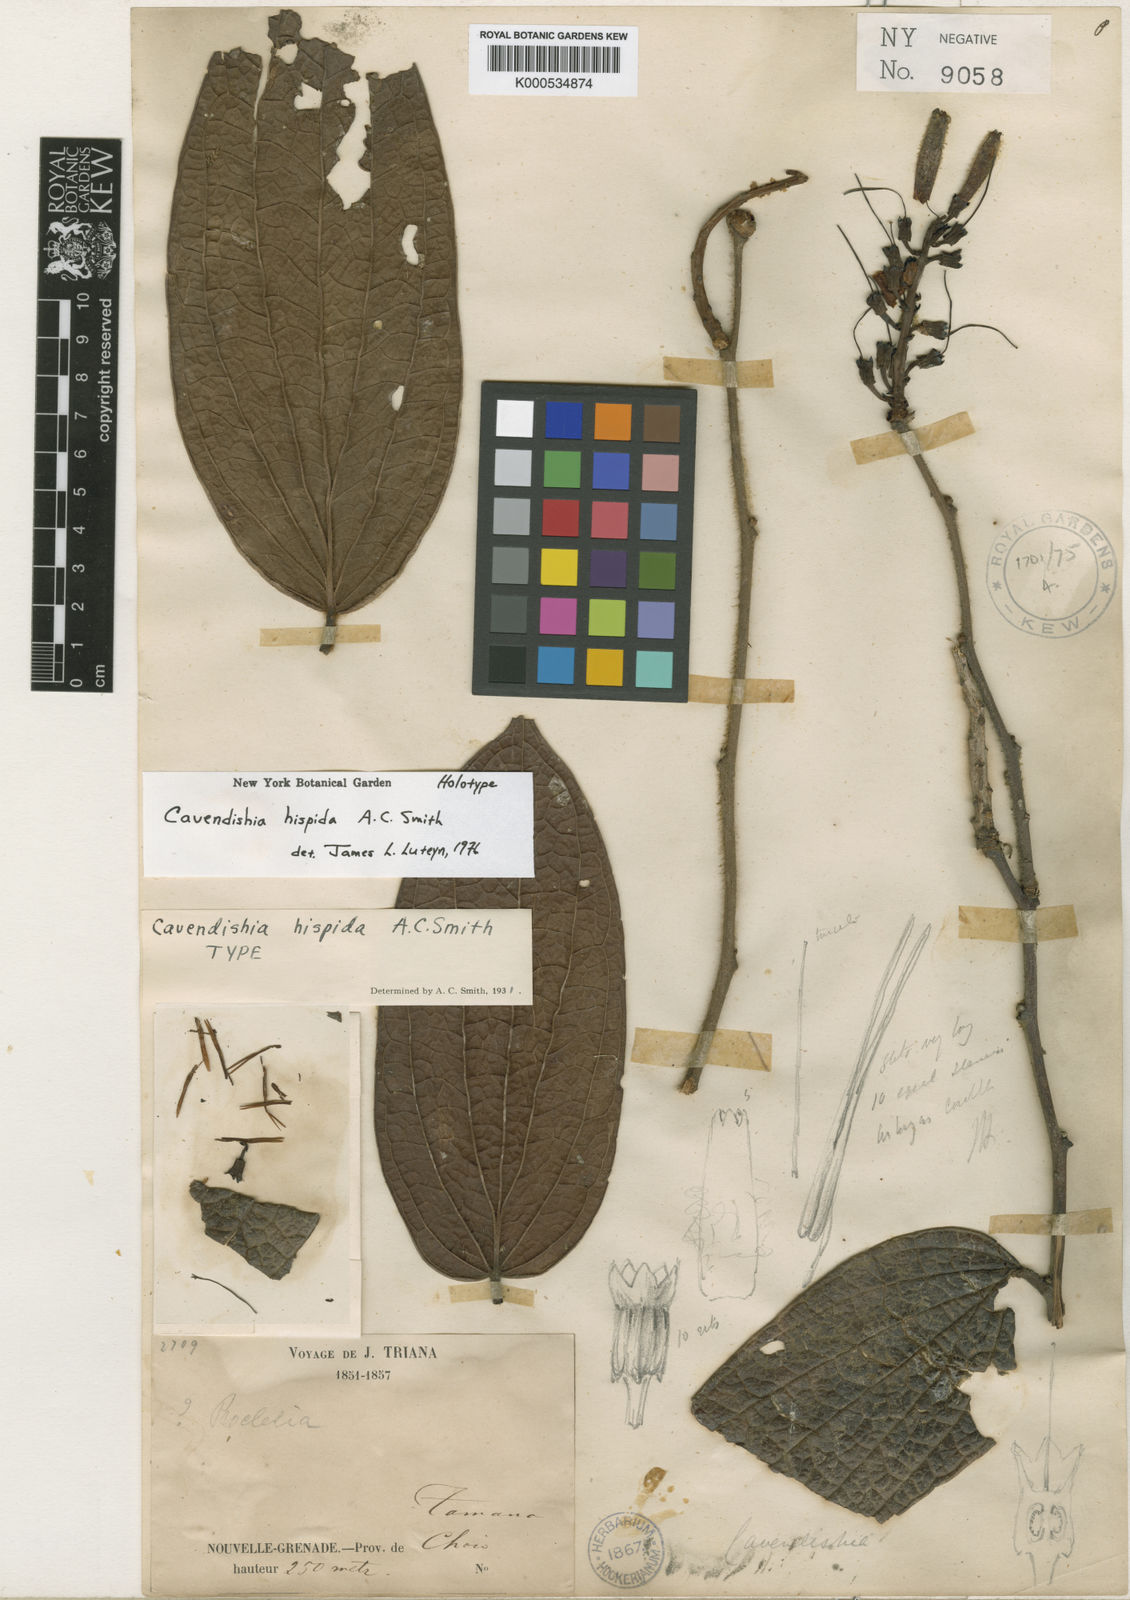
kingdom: Plantae
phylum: Tracheophyta
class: Magnoliopsida
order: Ericales
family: Ericaceae
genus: Cavendishia
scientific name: Cavendishia callista
